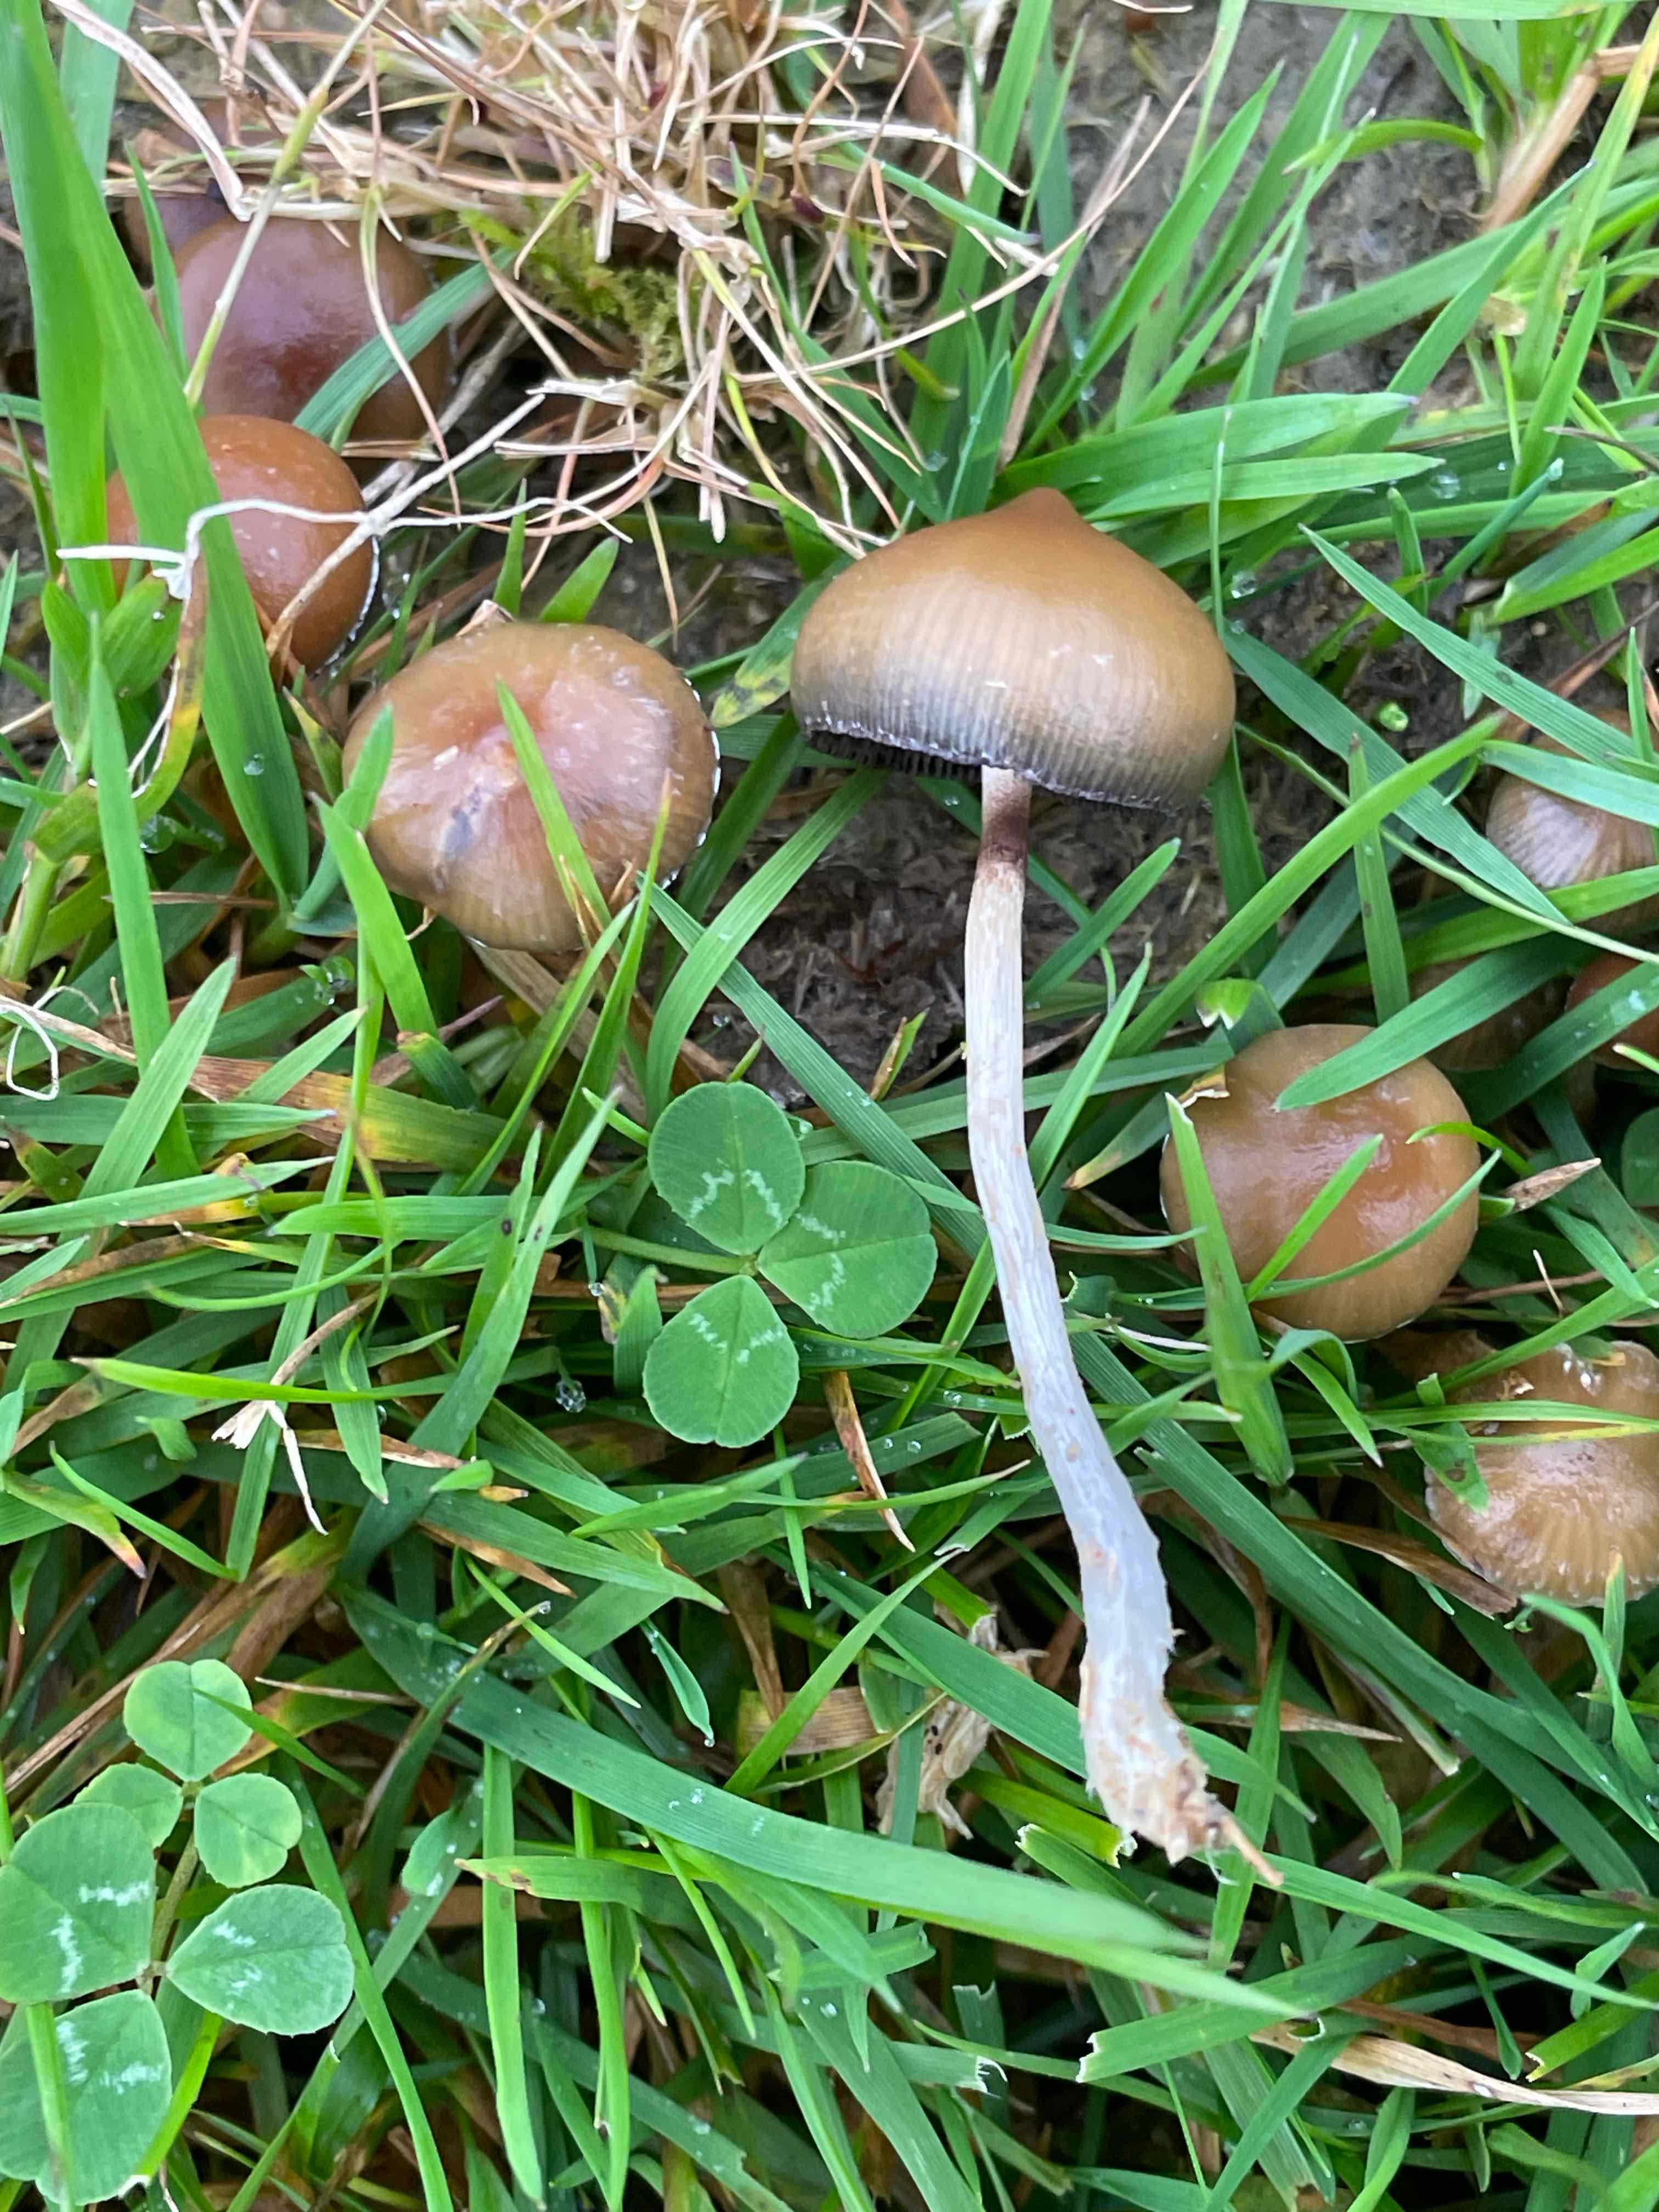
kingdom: Fungi
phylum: Basidiomycota
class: Agaricomycetes
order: Agaricales
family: Hymenogastraceae
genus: Psilocybe
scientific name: Psilocybe semilanceata
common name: spids nøgenhat
